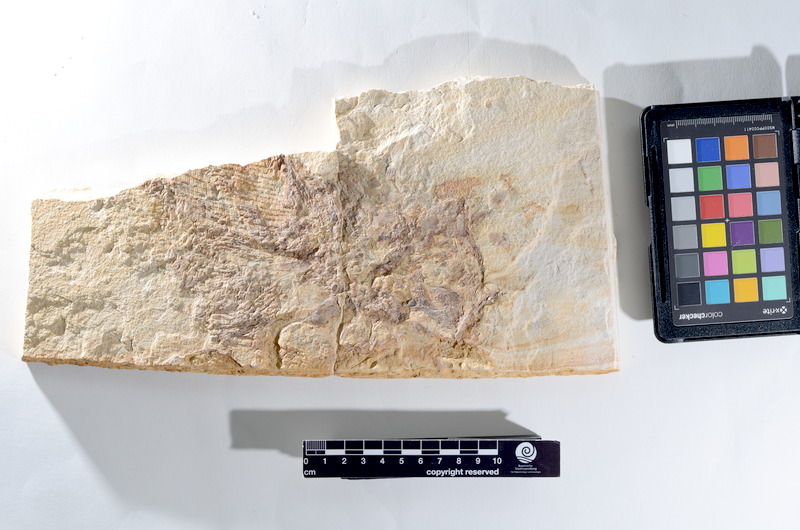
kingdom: Animalia
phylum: Chordata
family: Pholidophoridae
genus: Pholidophorus
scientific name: Pholidophorus
